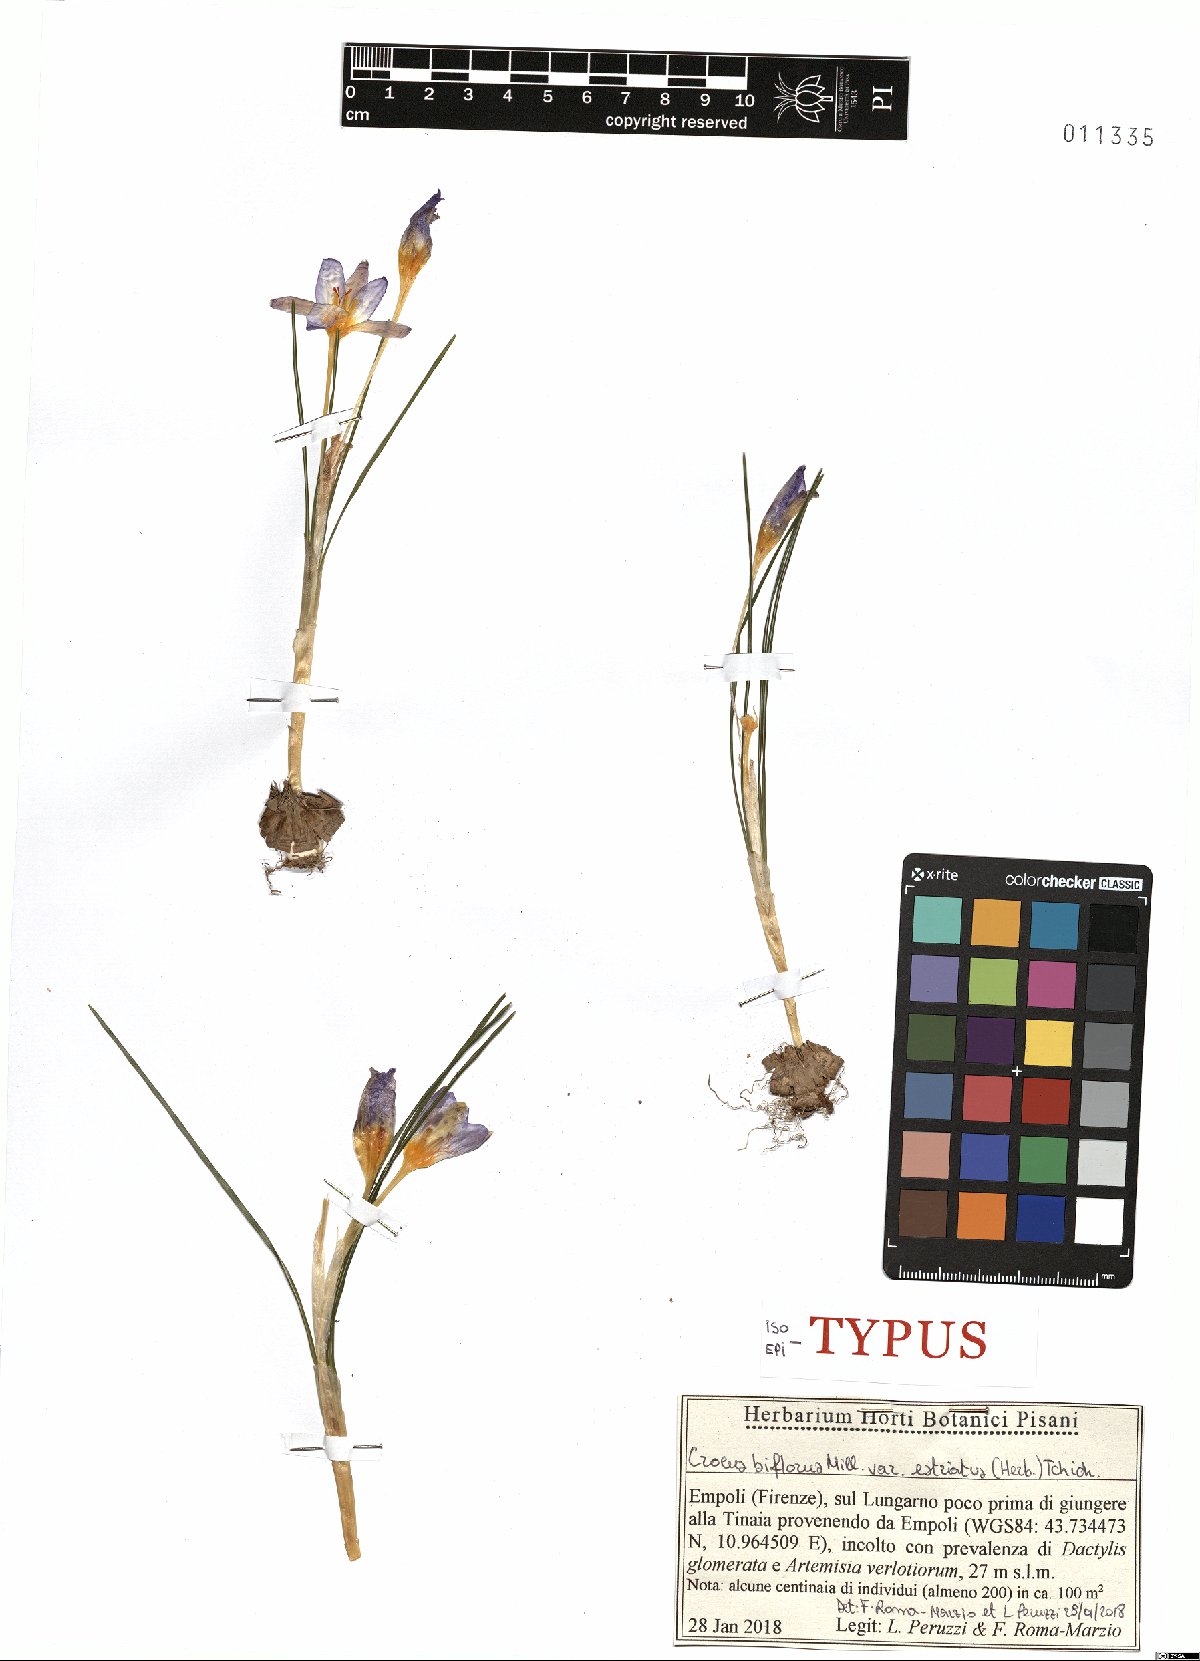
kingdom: Plantae
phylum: Tracheophyta
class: Liliopsida
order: Asparagales
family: Iridaceae
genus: Crocus
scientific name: Crocus biflorus
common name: Silvery crocus
